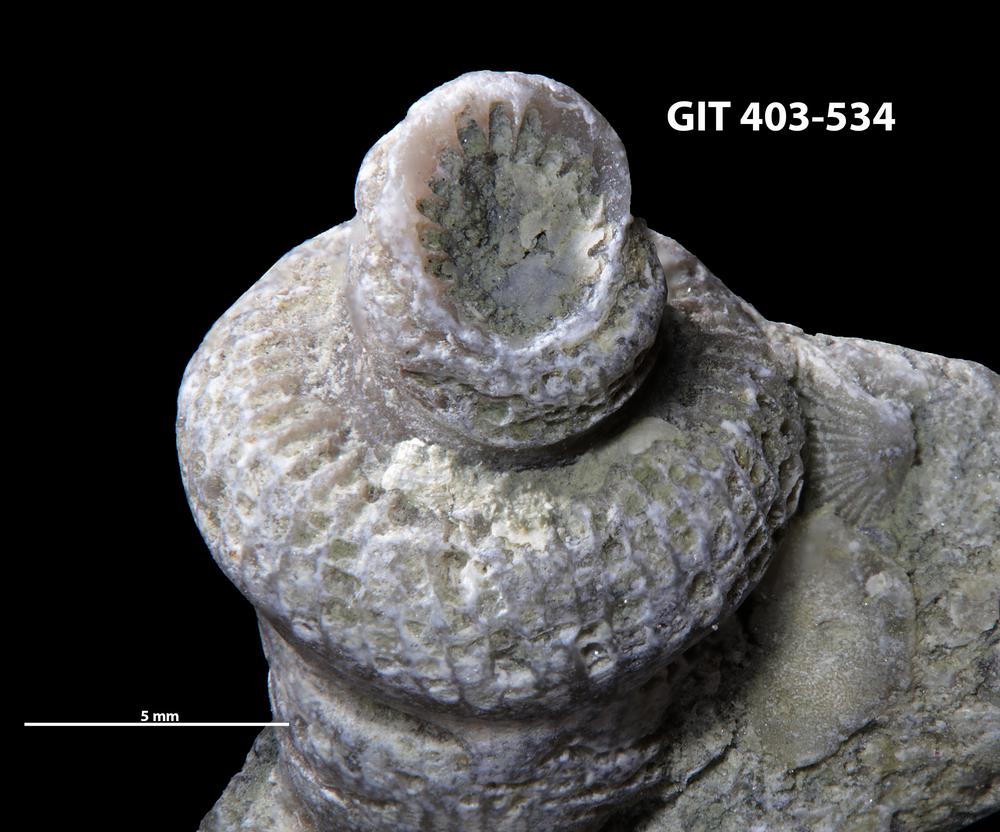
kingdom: Animalia
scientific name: Animalia
